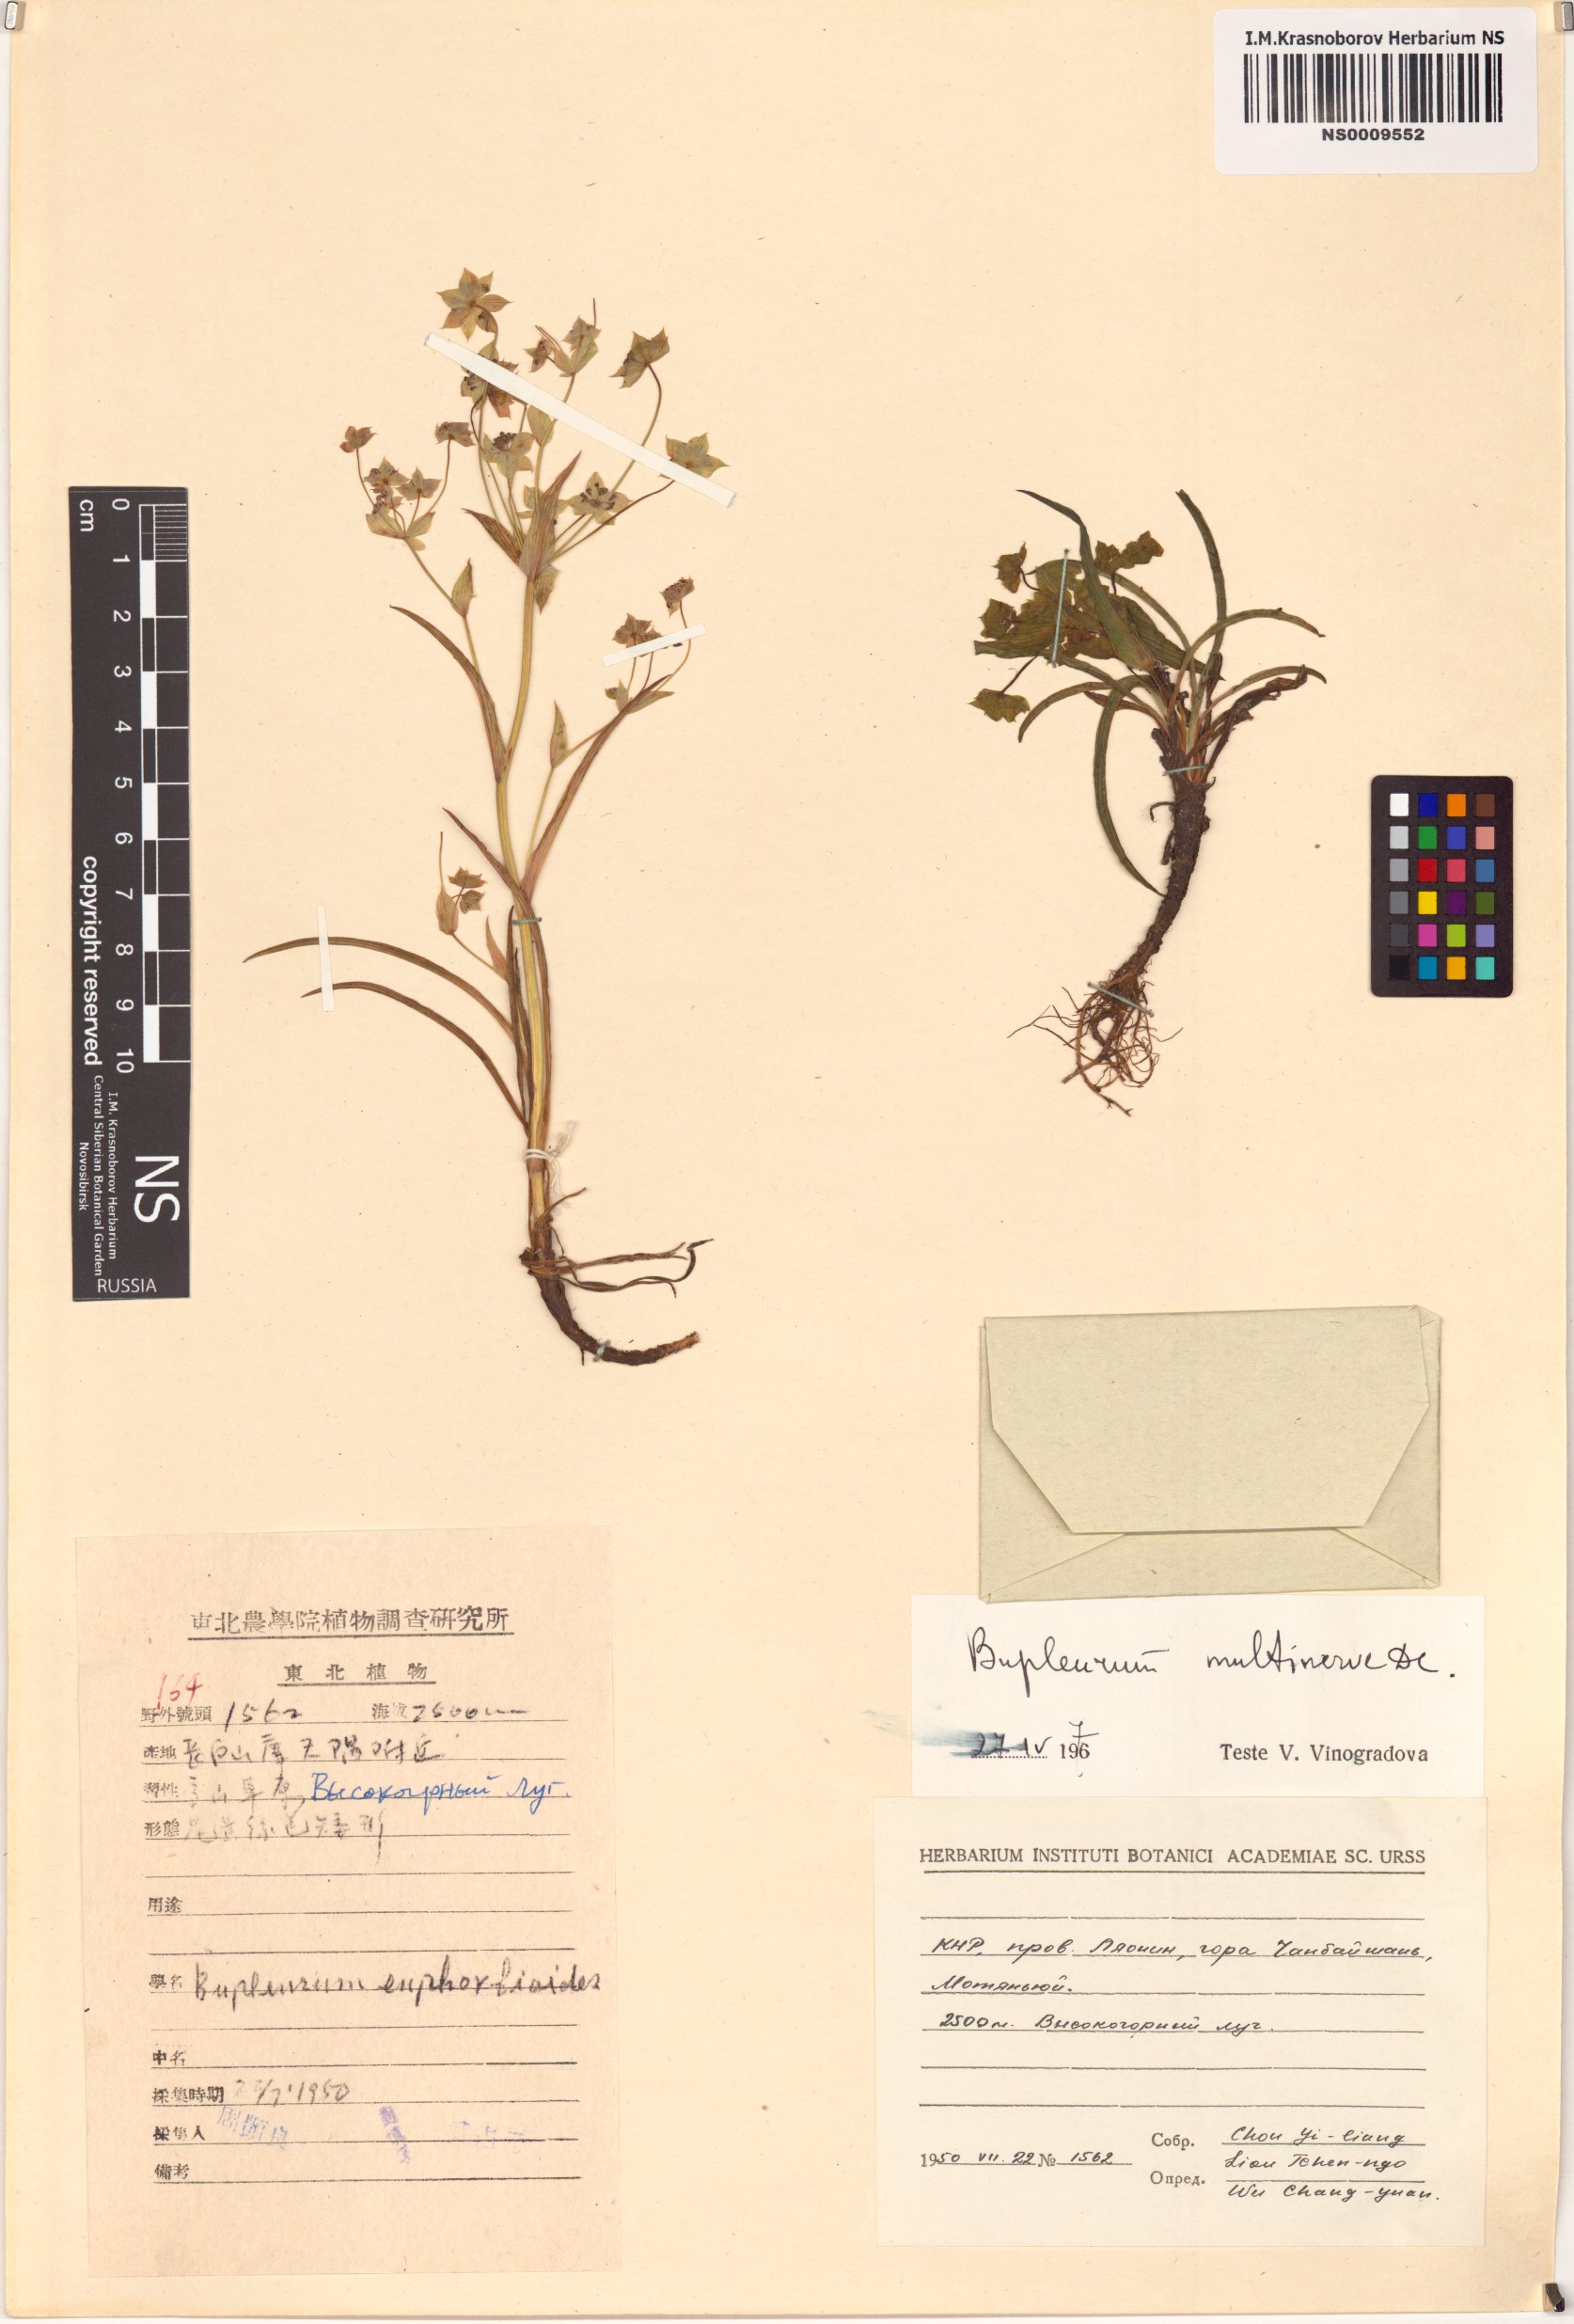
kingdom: Plantae
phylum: Tracheophyta
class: Magnoliopsida
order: Apiales
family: Apiaceae
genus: Bupleurum
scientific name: Bupleurum multinerve
